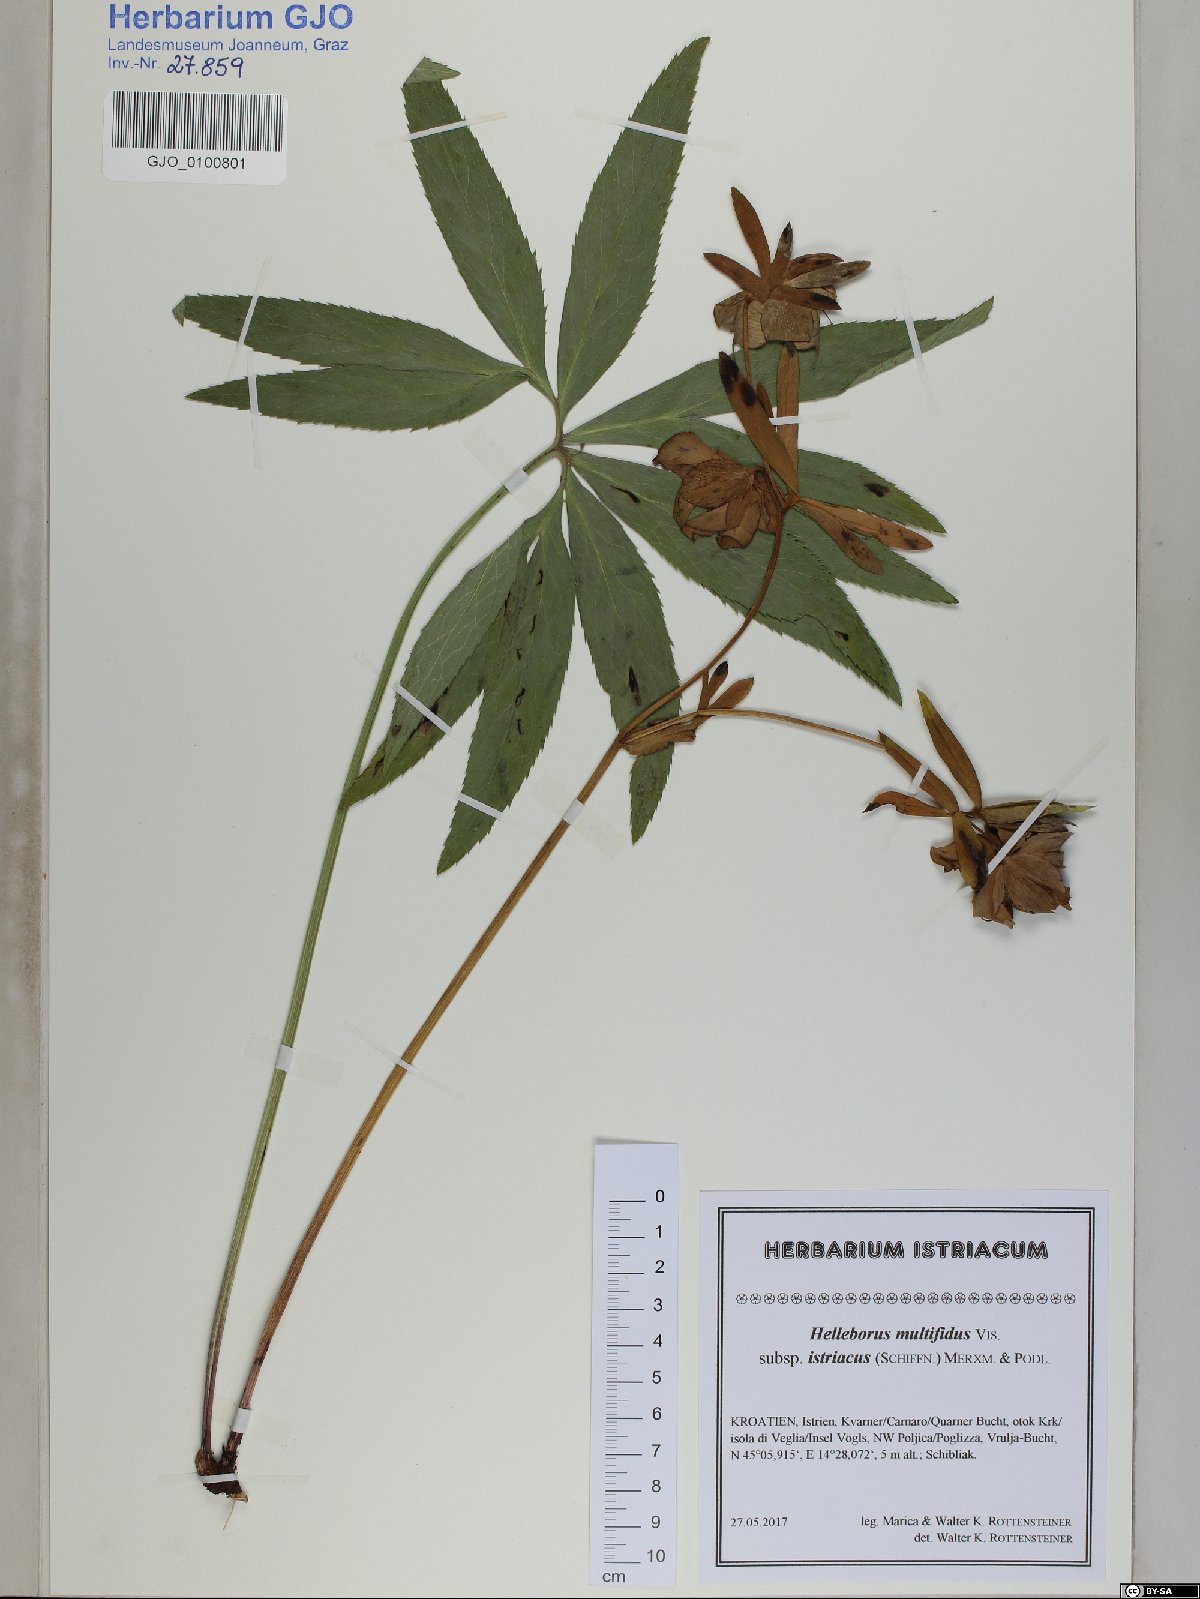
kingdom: Plantae
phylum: Tracheophyta
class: Magnoliopsida
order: Ranunculales
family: Ranunculaceae
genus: Helleborus
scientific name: Helleborus bocconei
